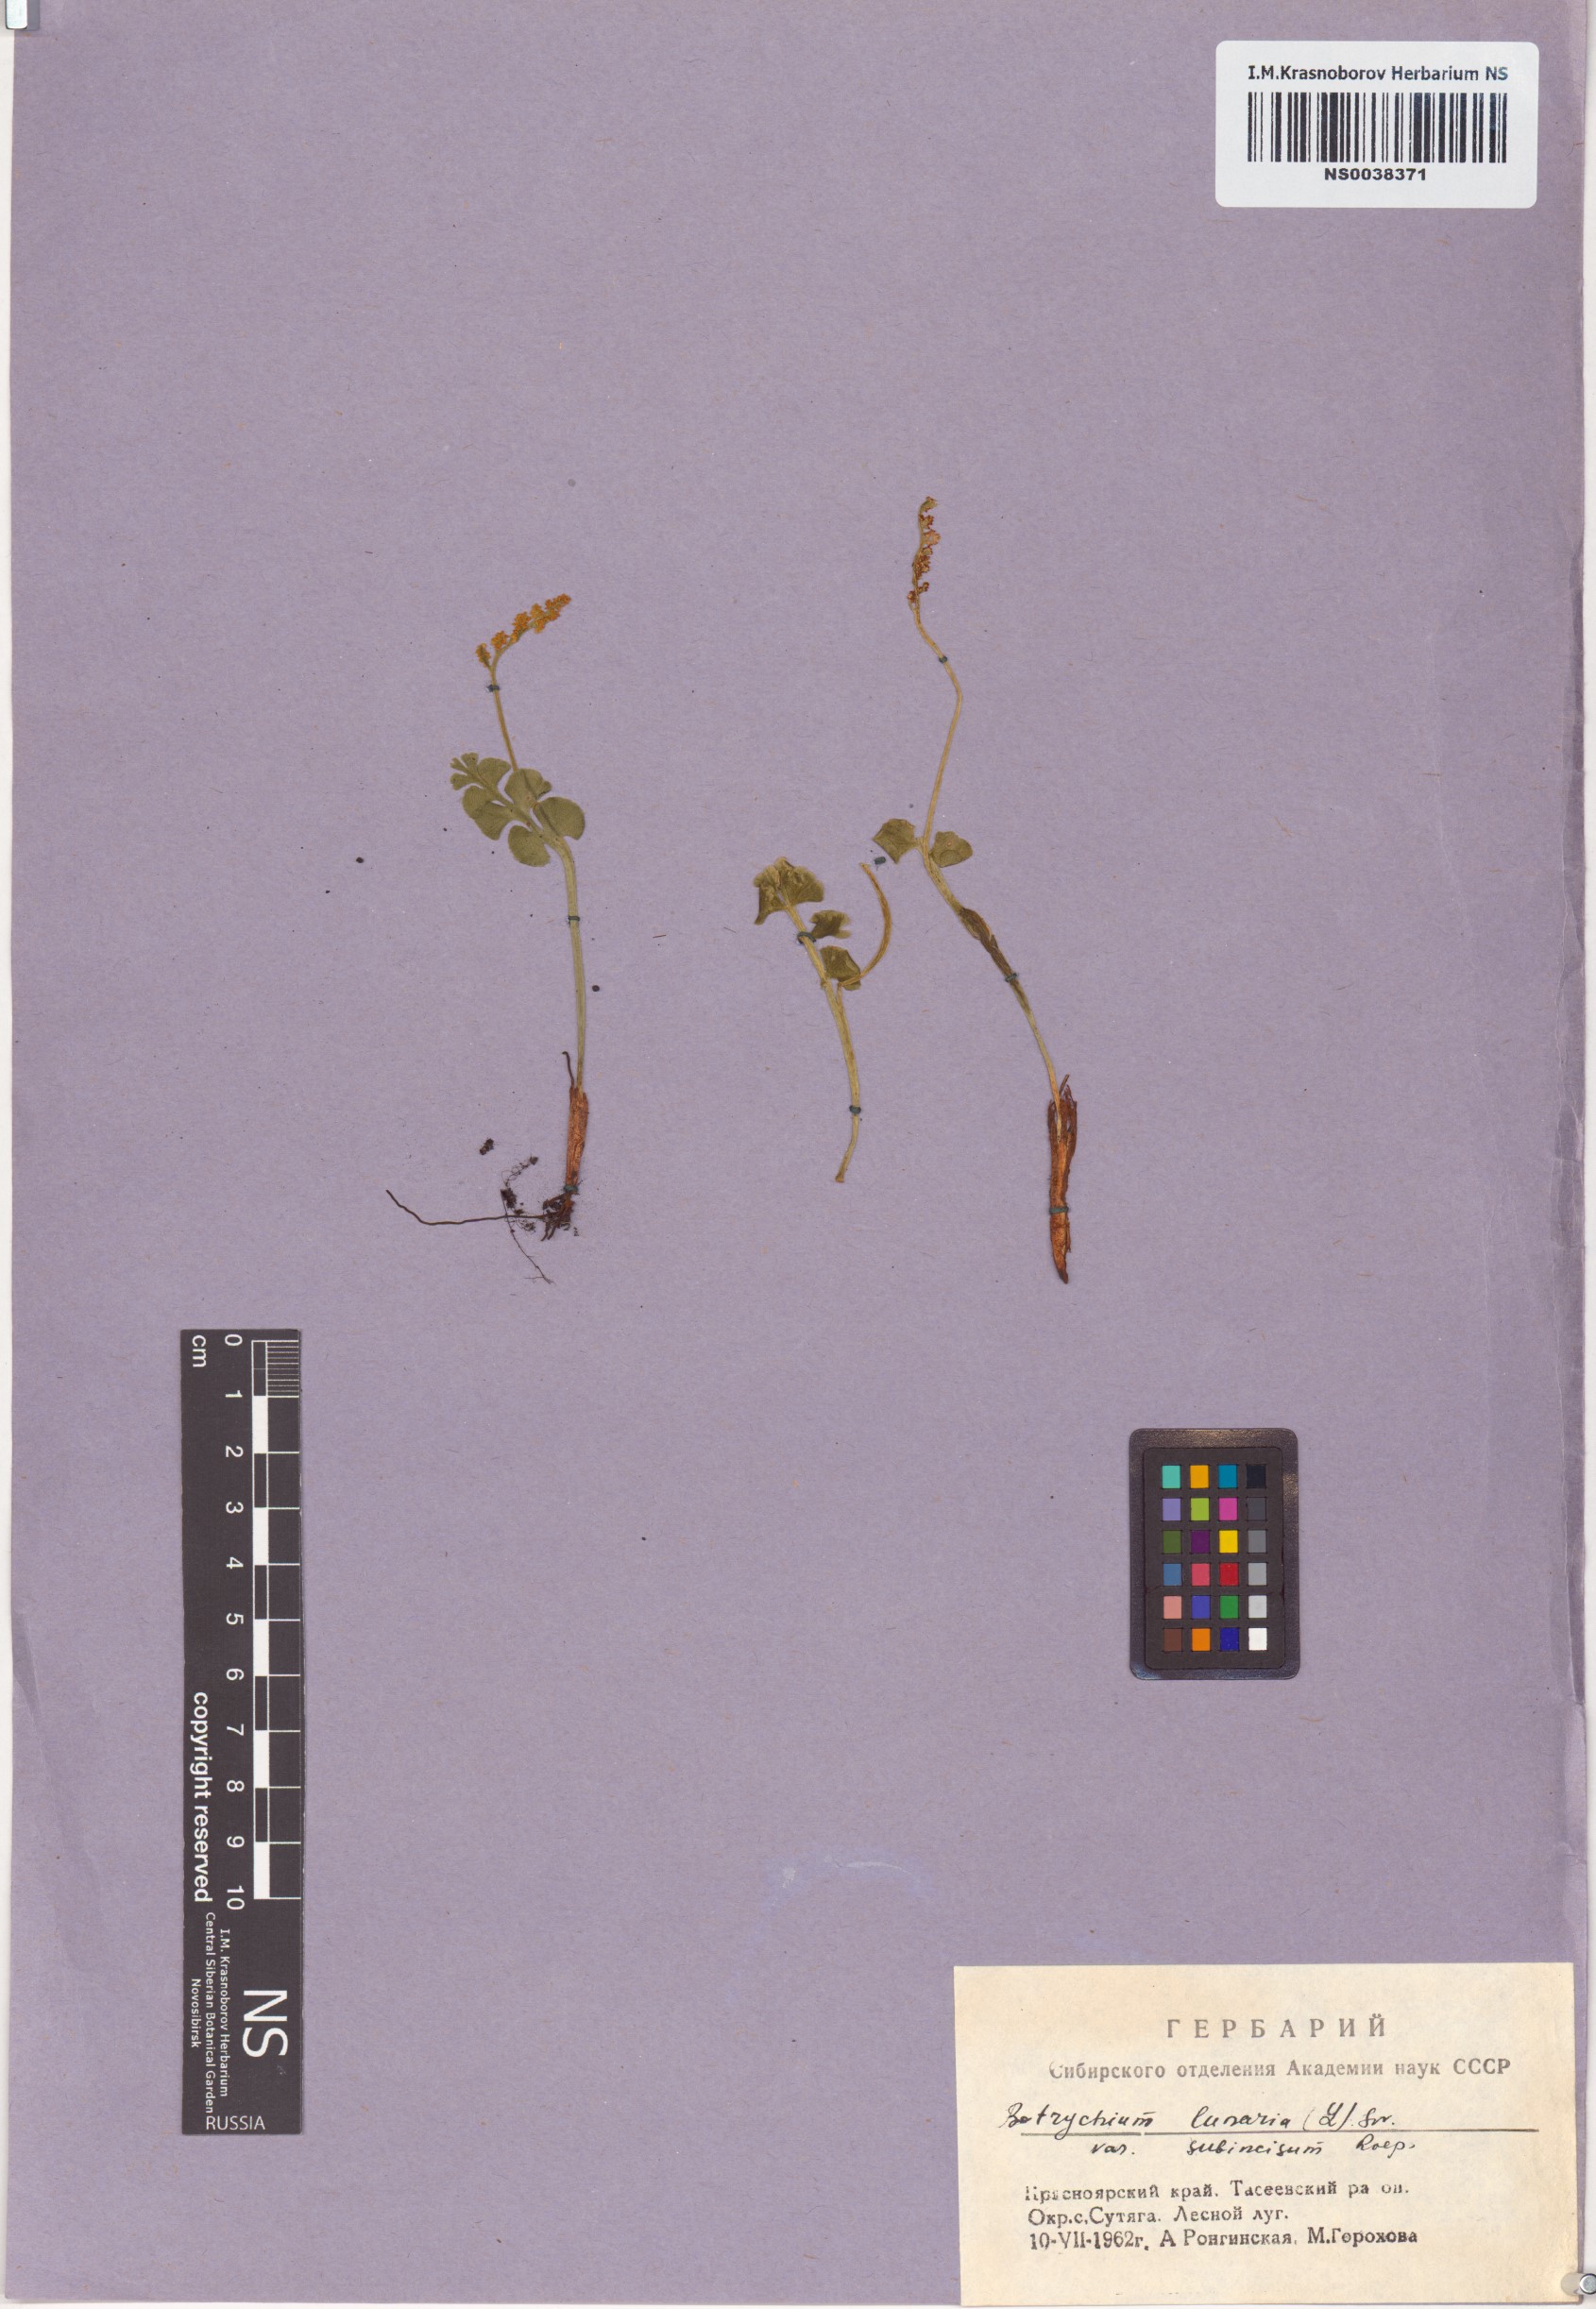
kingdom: Plantae
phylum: Tracheophyta
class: Polypodiopsida
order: Ophioglossales
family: Ophioglossaceae
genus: Botrychium
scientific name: Botrychium lunaria
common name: Moonwort
